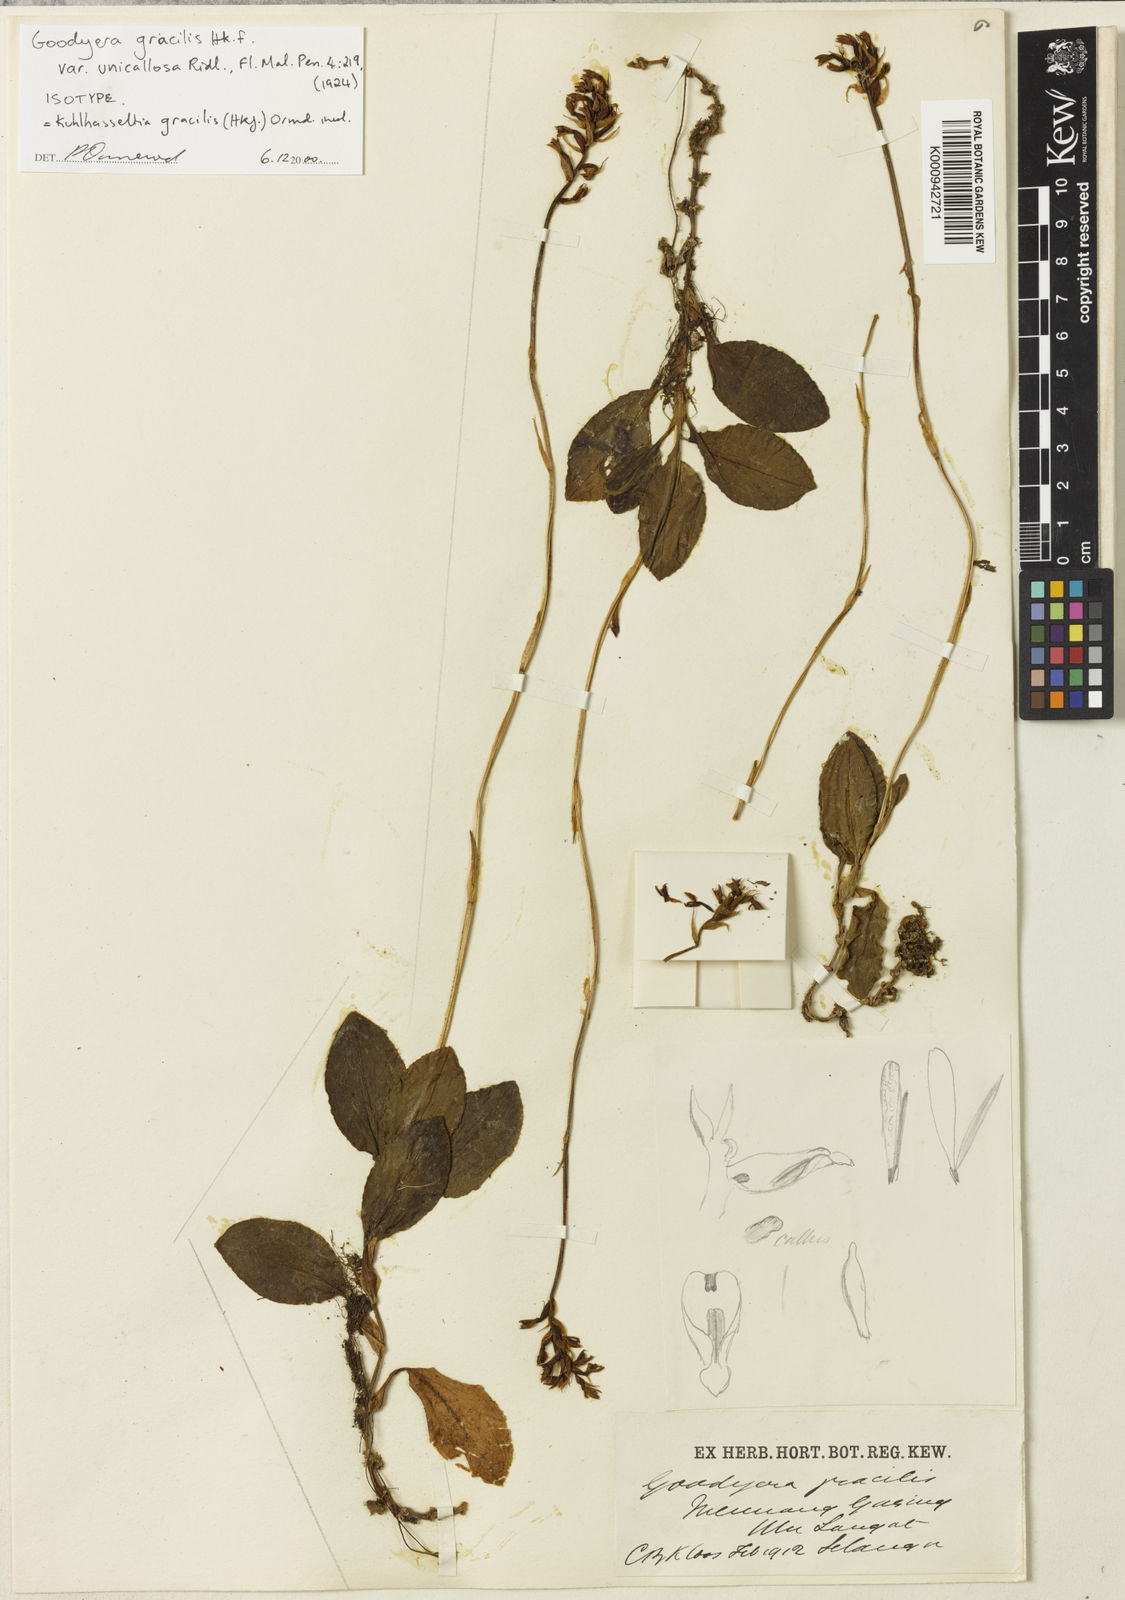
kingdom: Plantae
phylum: Tracheophyta
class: Liliopsida
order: Asparagales
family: Orchidaceae
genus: Cystorchis
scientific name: Cystorchis gracilis
